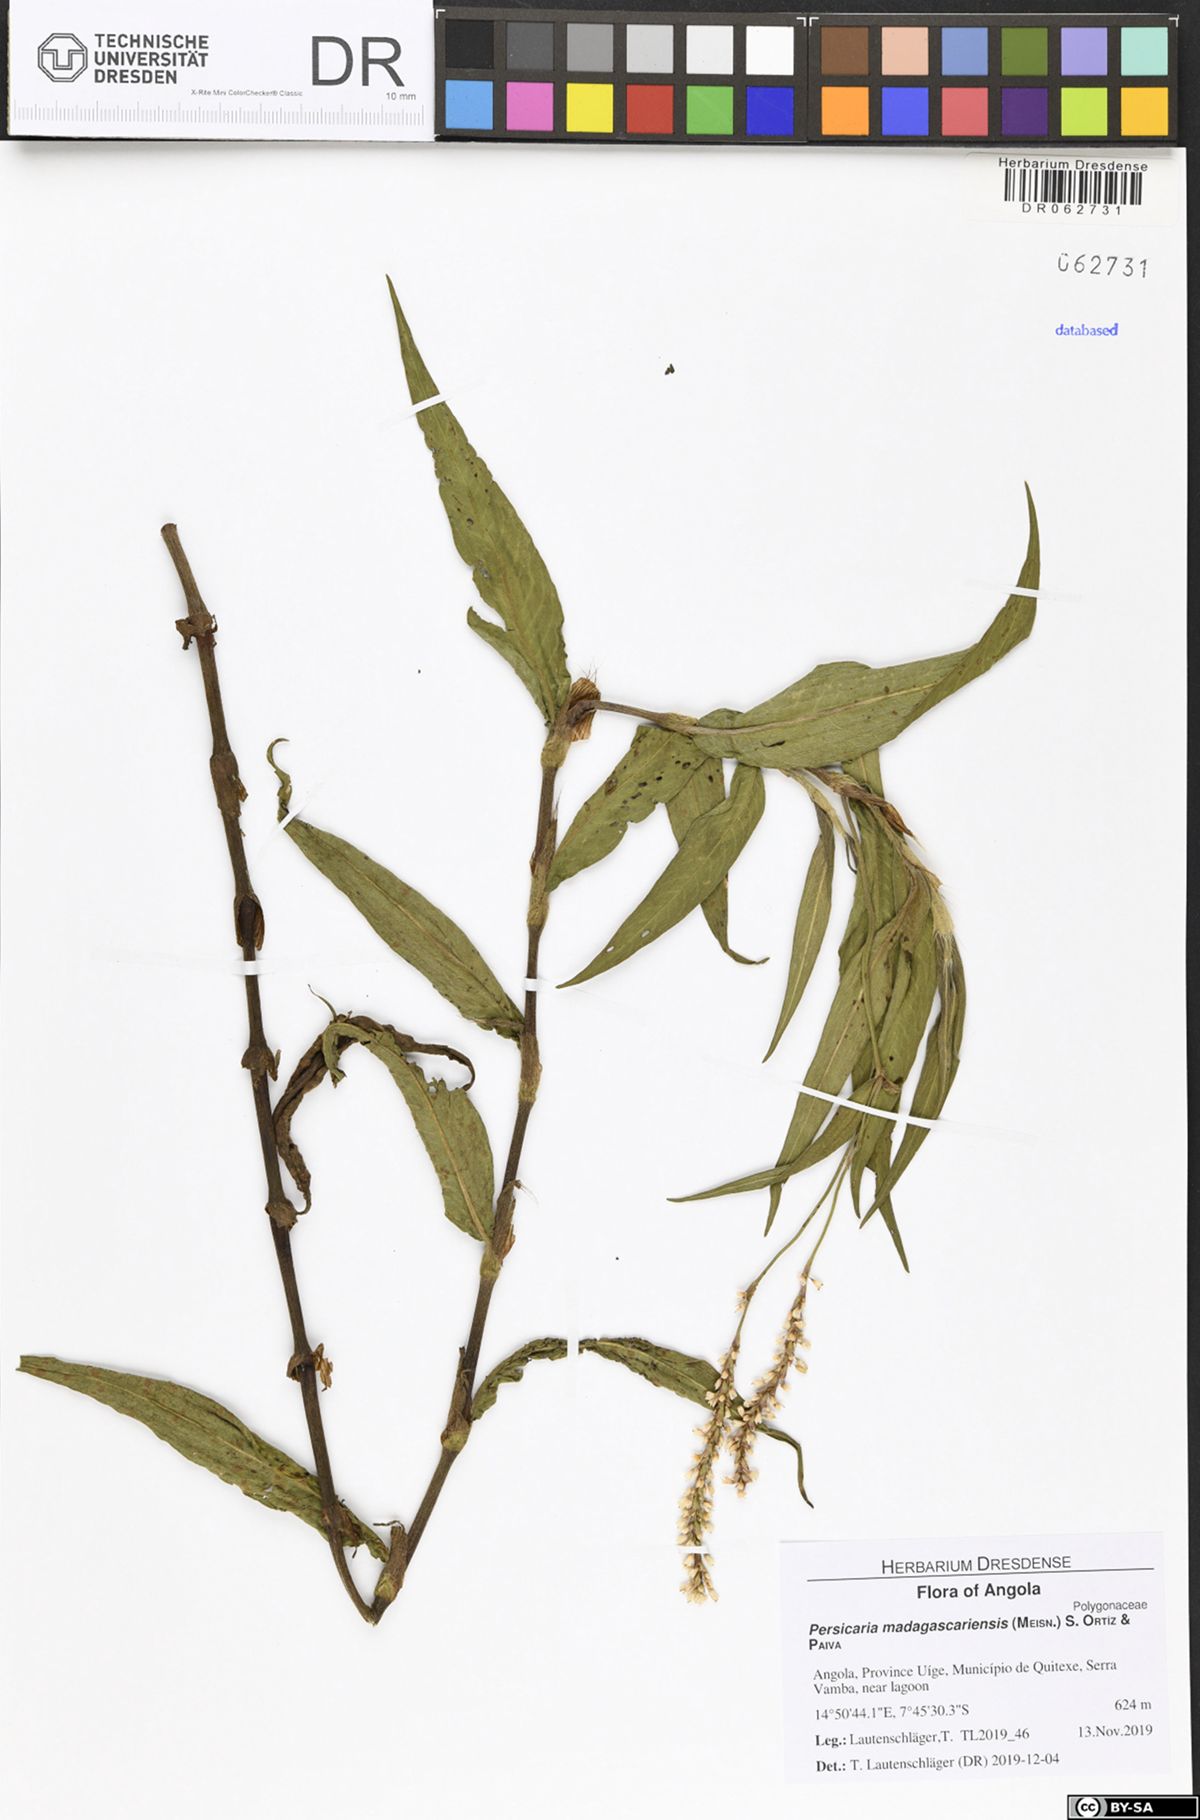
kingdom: Plantae
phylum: Tracheophyta
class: Magnoliopsida
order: Caryophyllales
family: Polygonaceae
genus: Persicaria
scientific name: Persicaria madagascariensis
